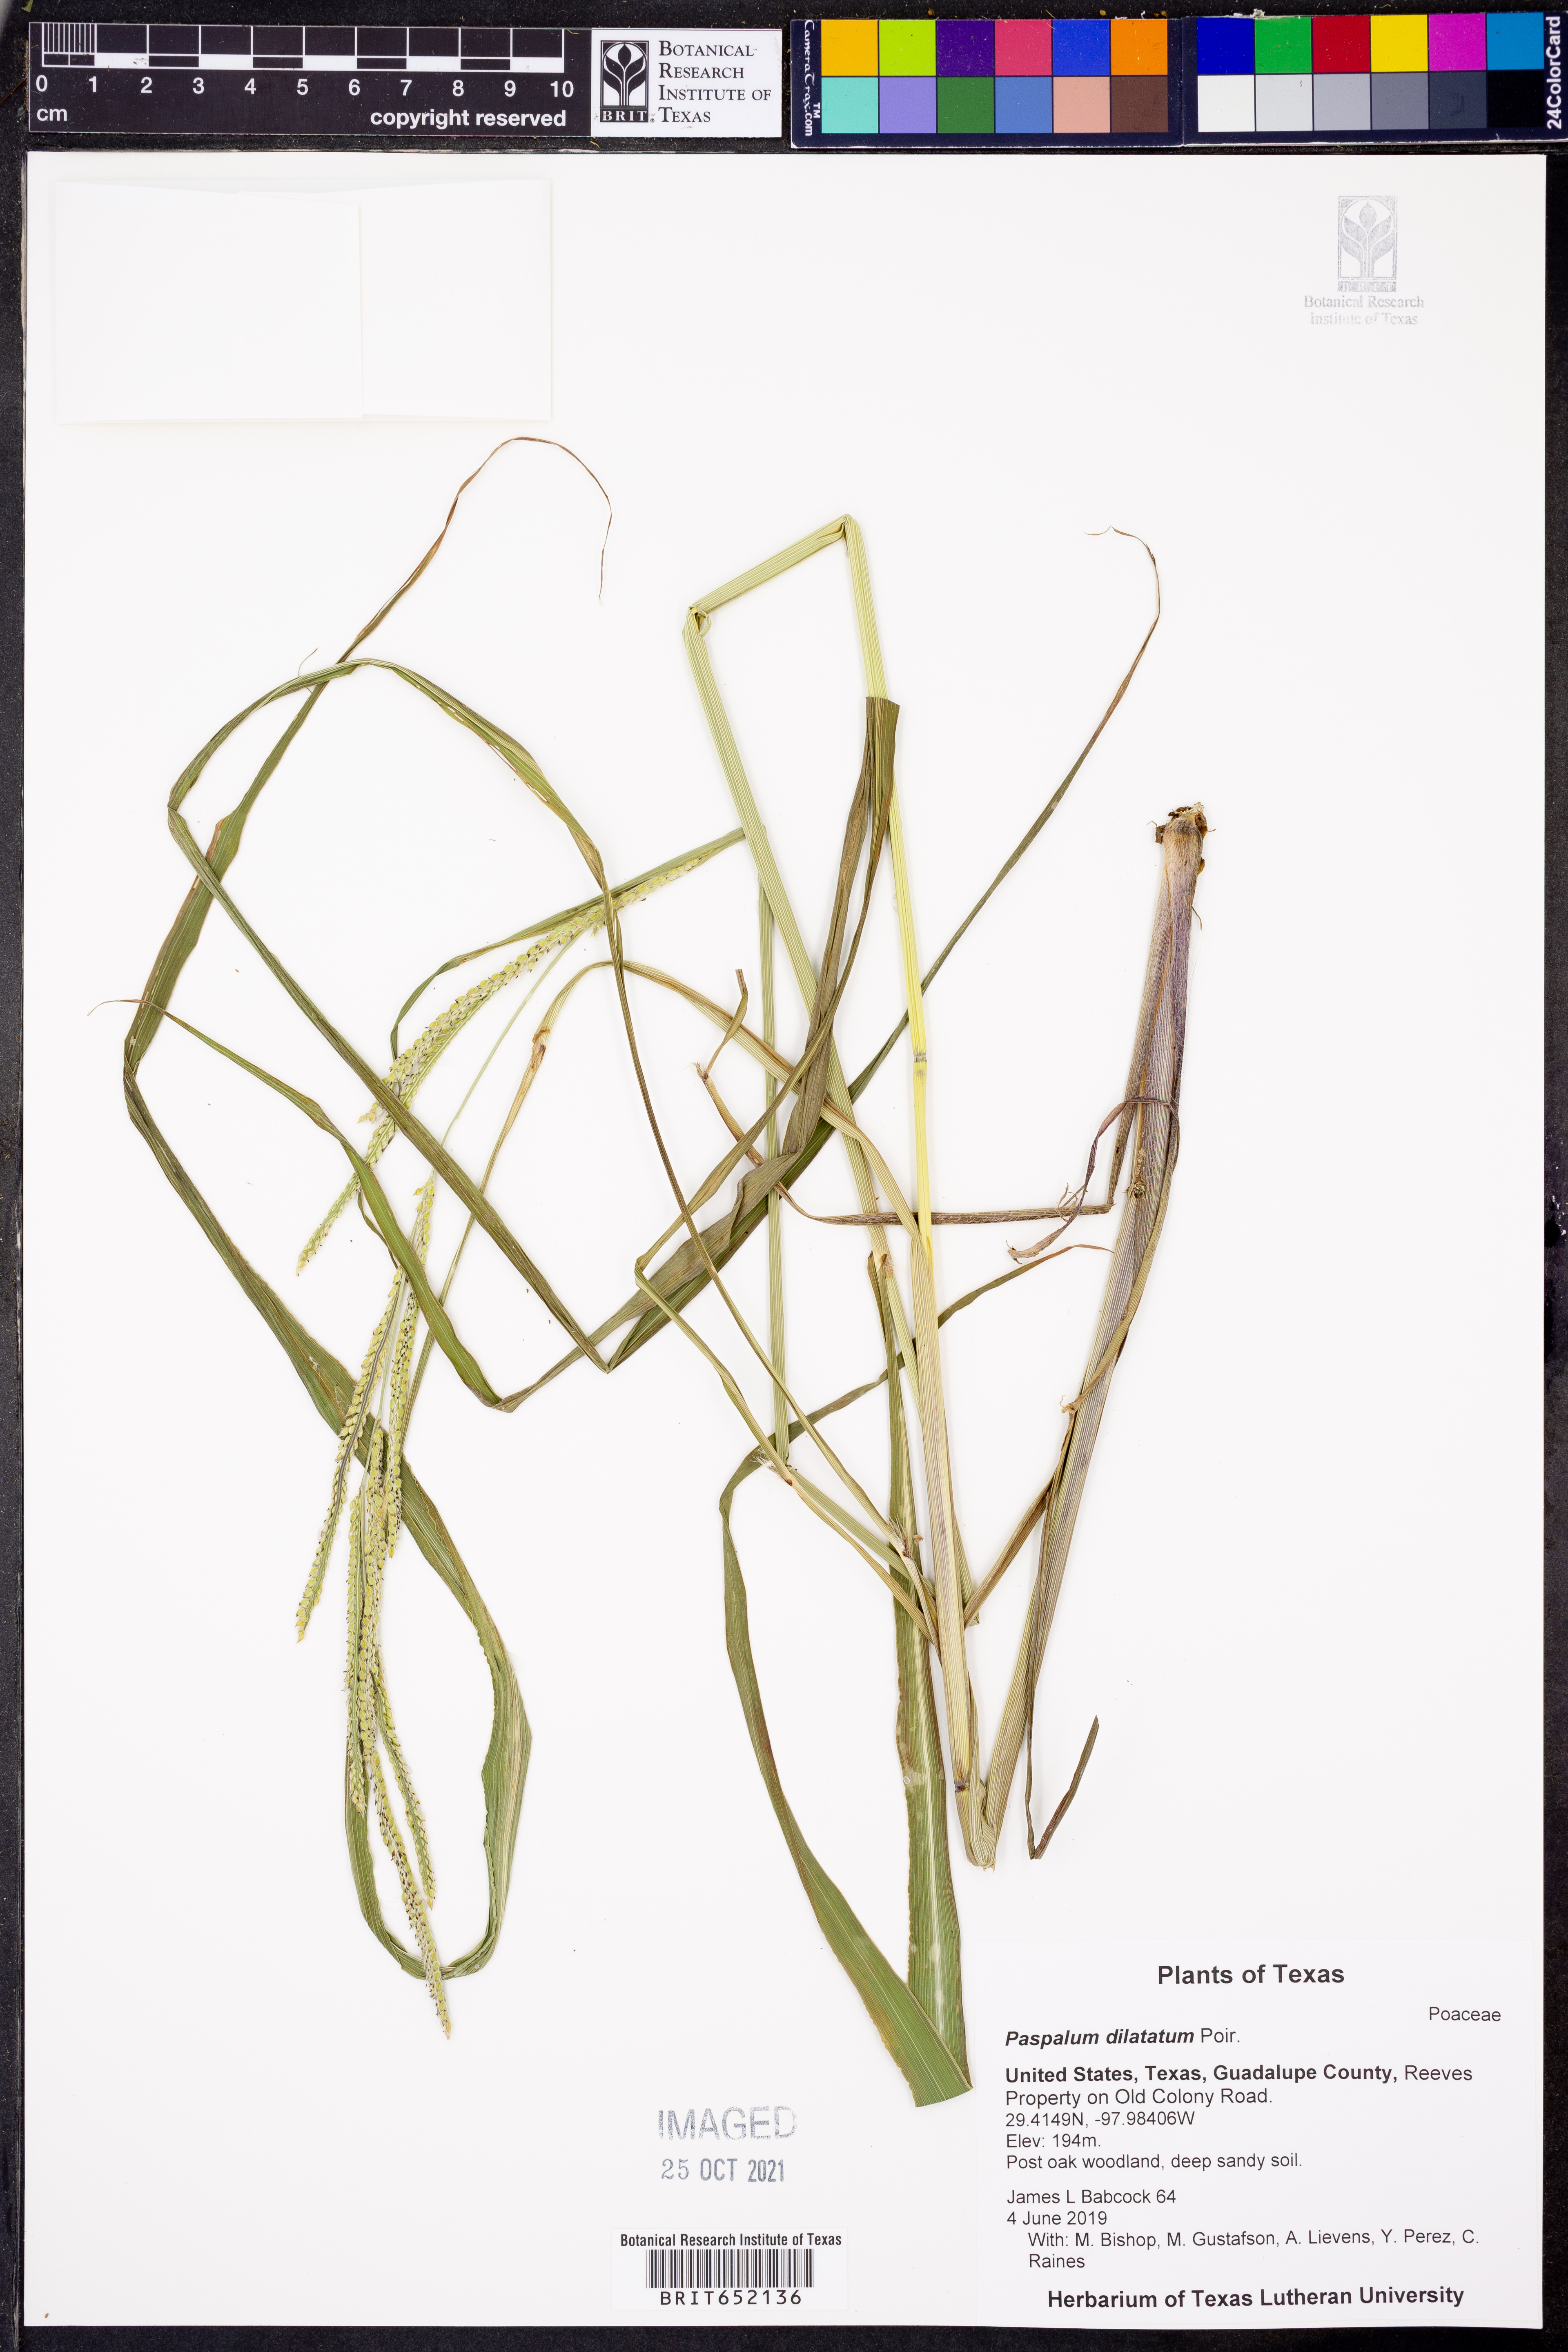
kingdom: Plantae
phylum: Tracheophyta
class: Liliopsida
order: Poales
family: Poaceae
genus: Paspalum
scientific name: Paspalum dilatatum
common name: Dallisgrass
